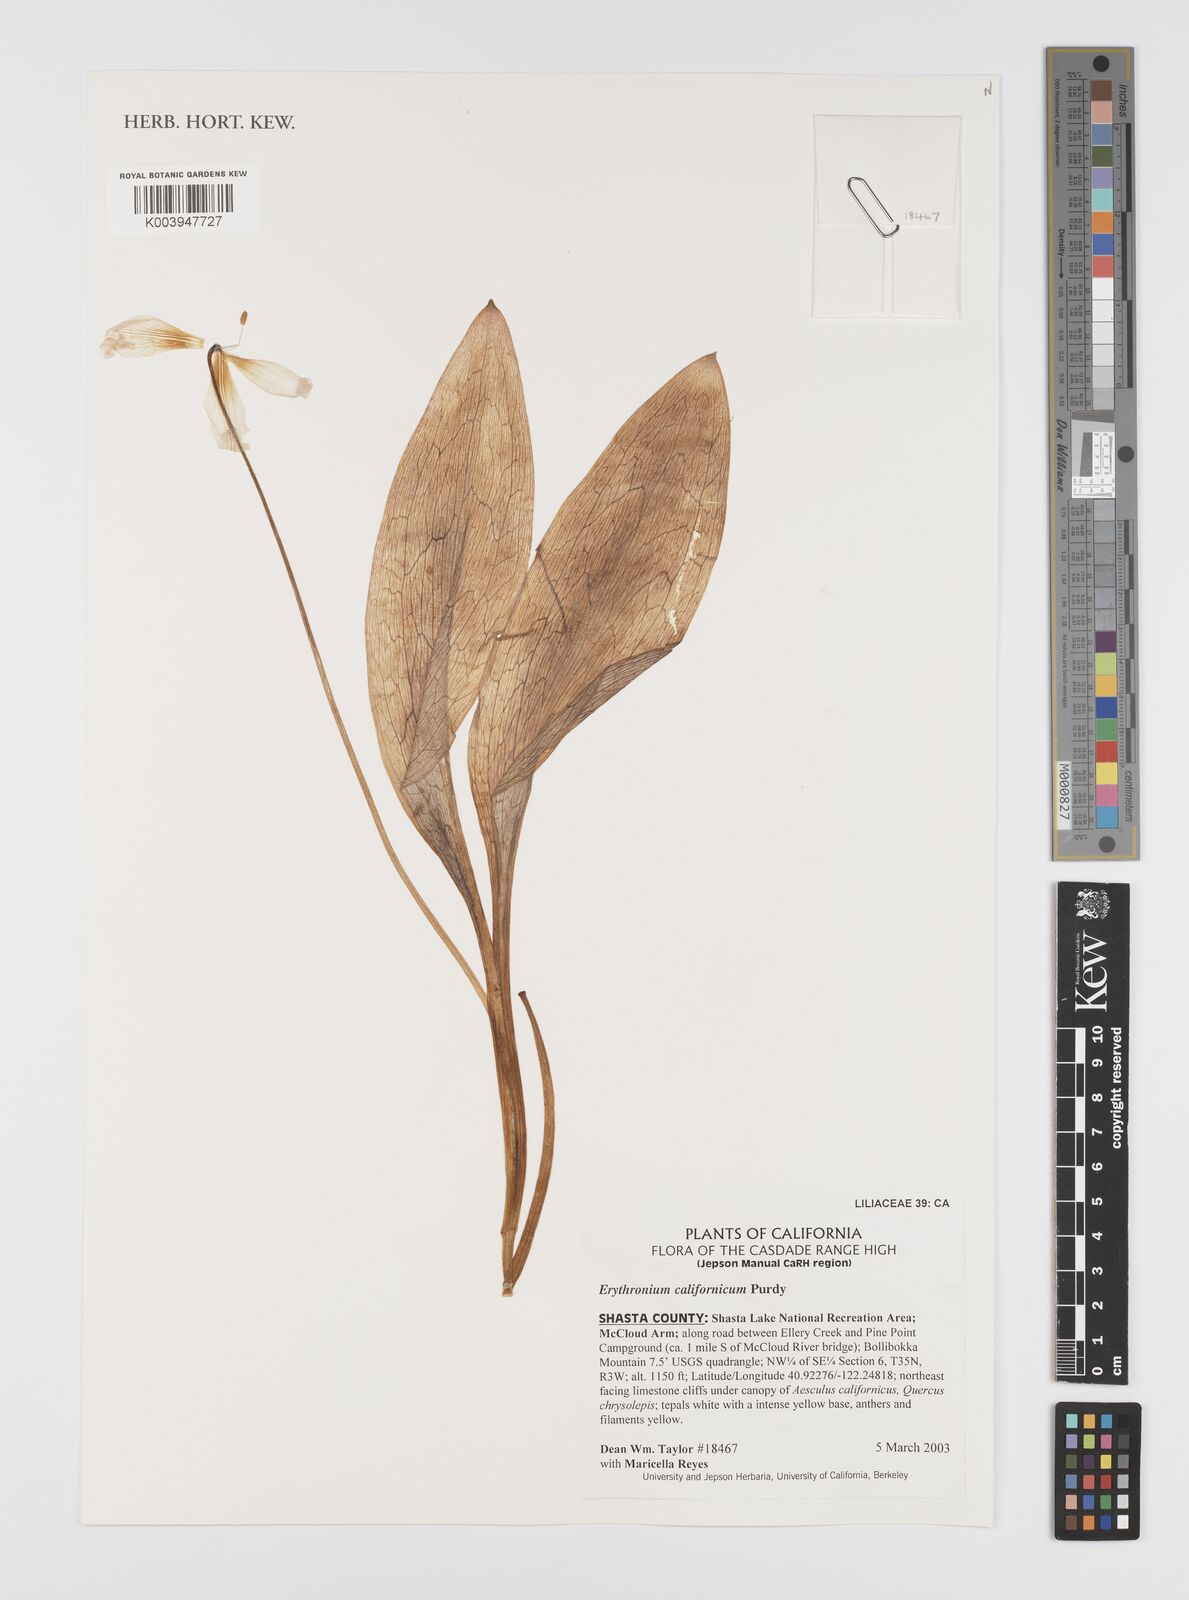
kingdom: Plantae
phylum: Tracheophyta
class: Liliopsida
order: Liliales
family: Liliaceae
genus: Erythronium
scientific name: Erythronium californicum
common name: Fawn-lily
